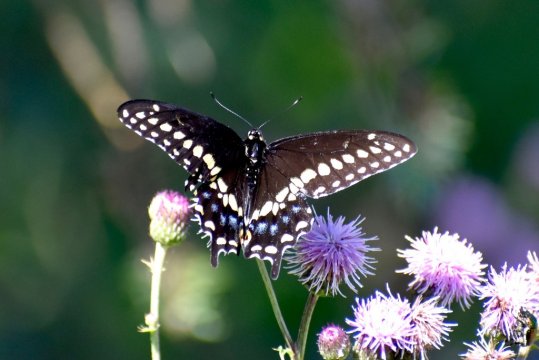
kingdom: Animalia
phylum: Arthropoda
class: Insecta
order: Lepidoptera
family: Papilionidae
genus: Papilio
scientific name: Papilio polyxenes
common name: Black Swallowtail
